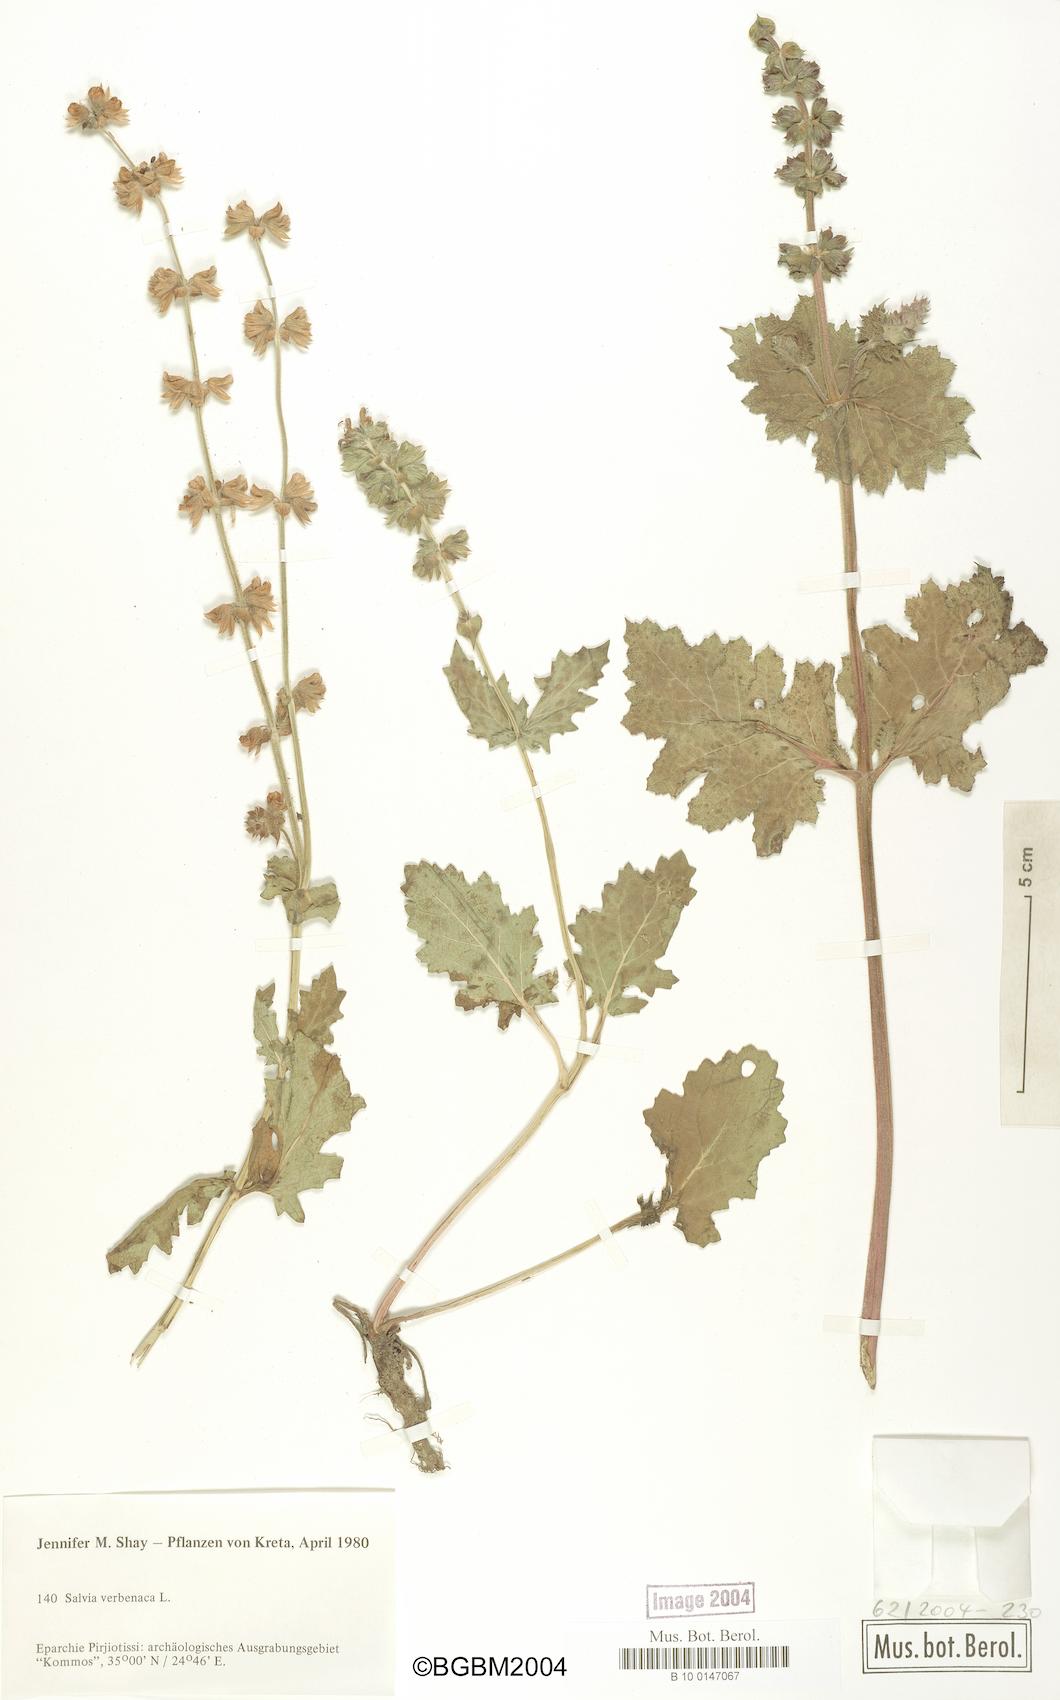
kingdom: Plantae
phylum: Tracheophyta
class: Magnoliopsida
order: Lamiales
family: Lamiaceae
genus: Salvia
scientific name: Salvia verbenaca
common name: Wild clary
